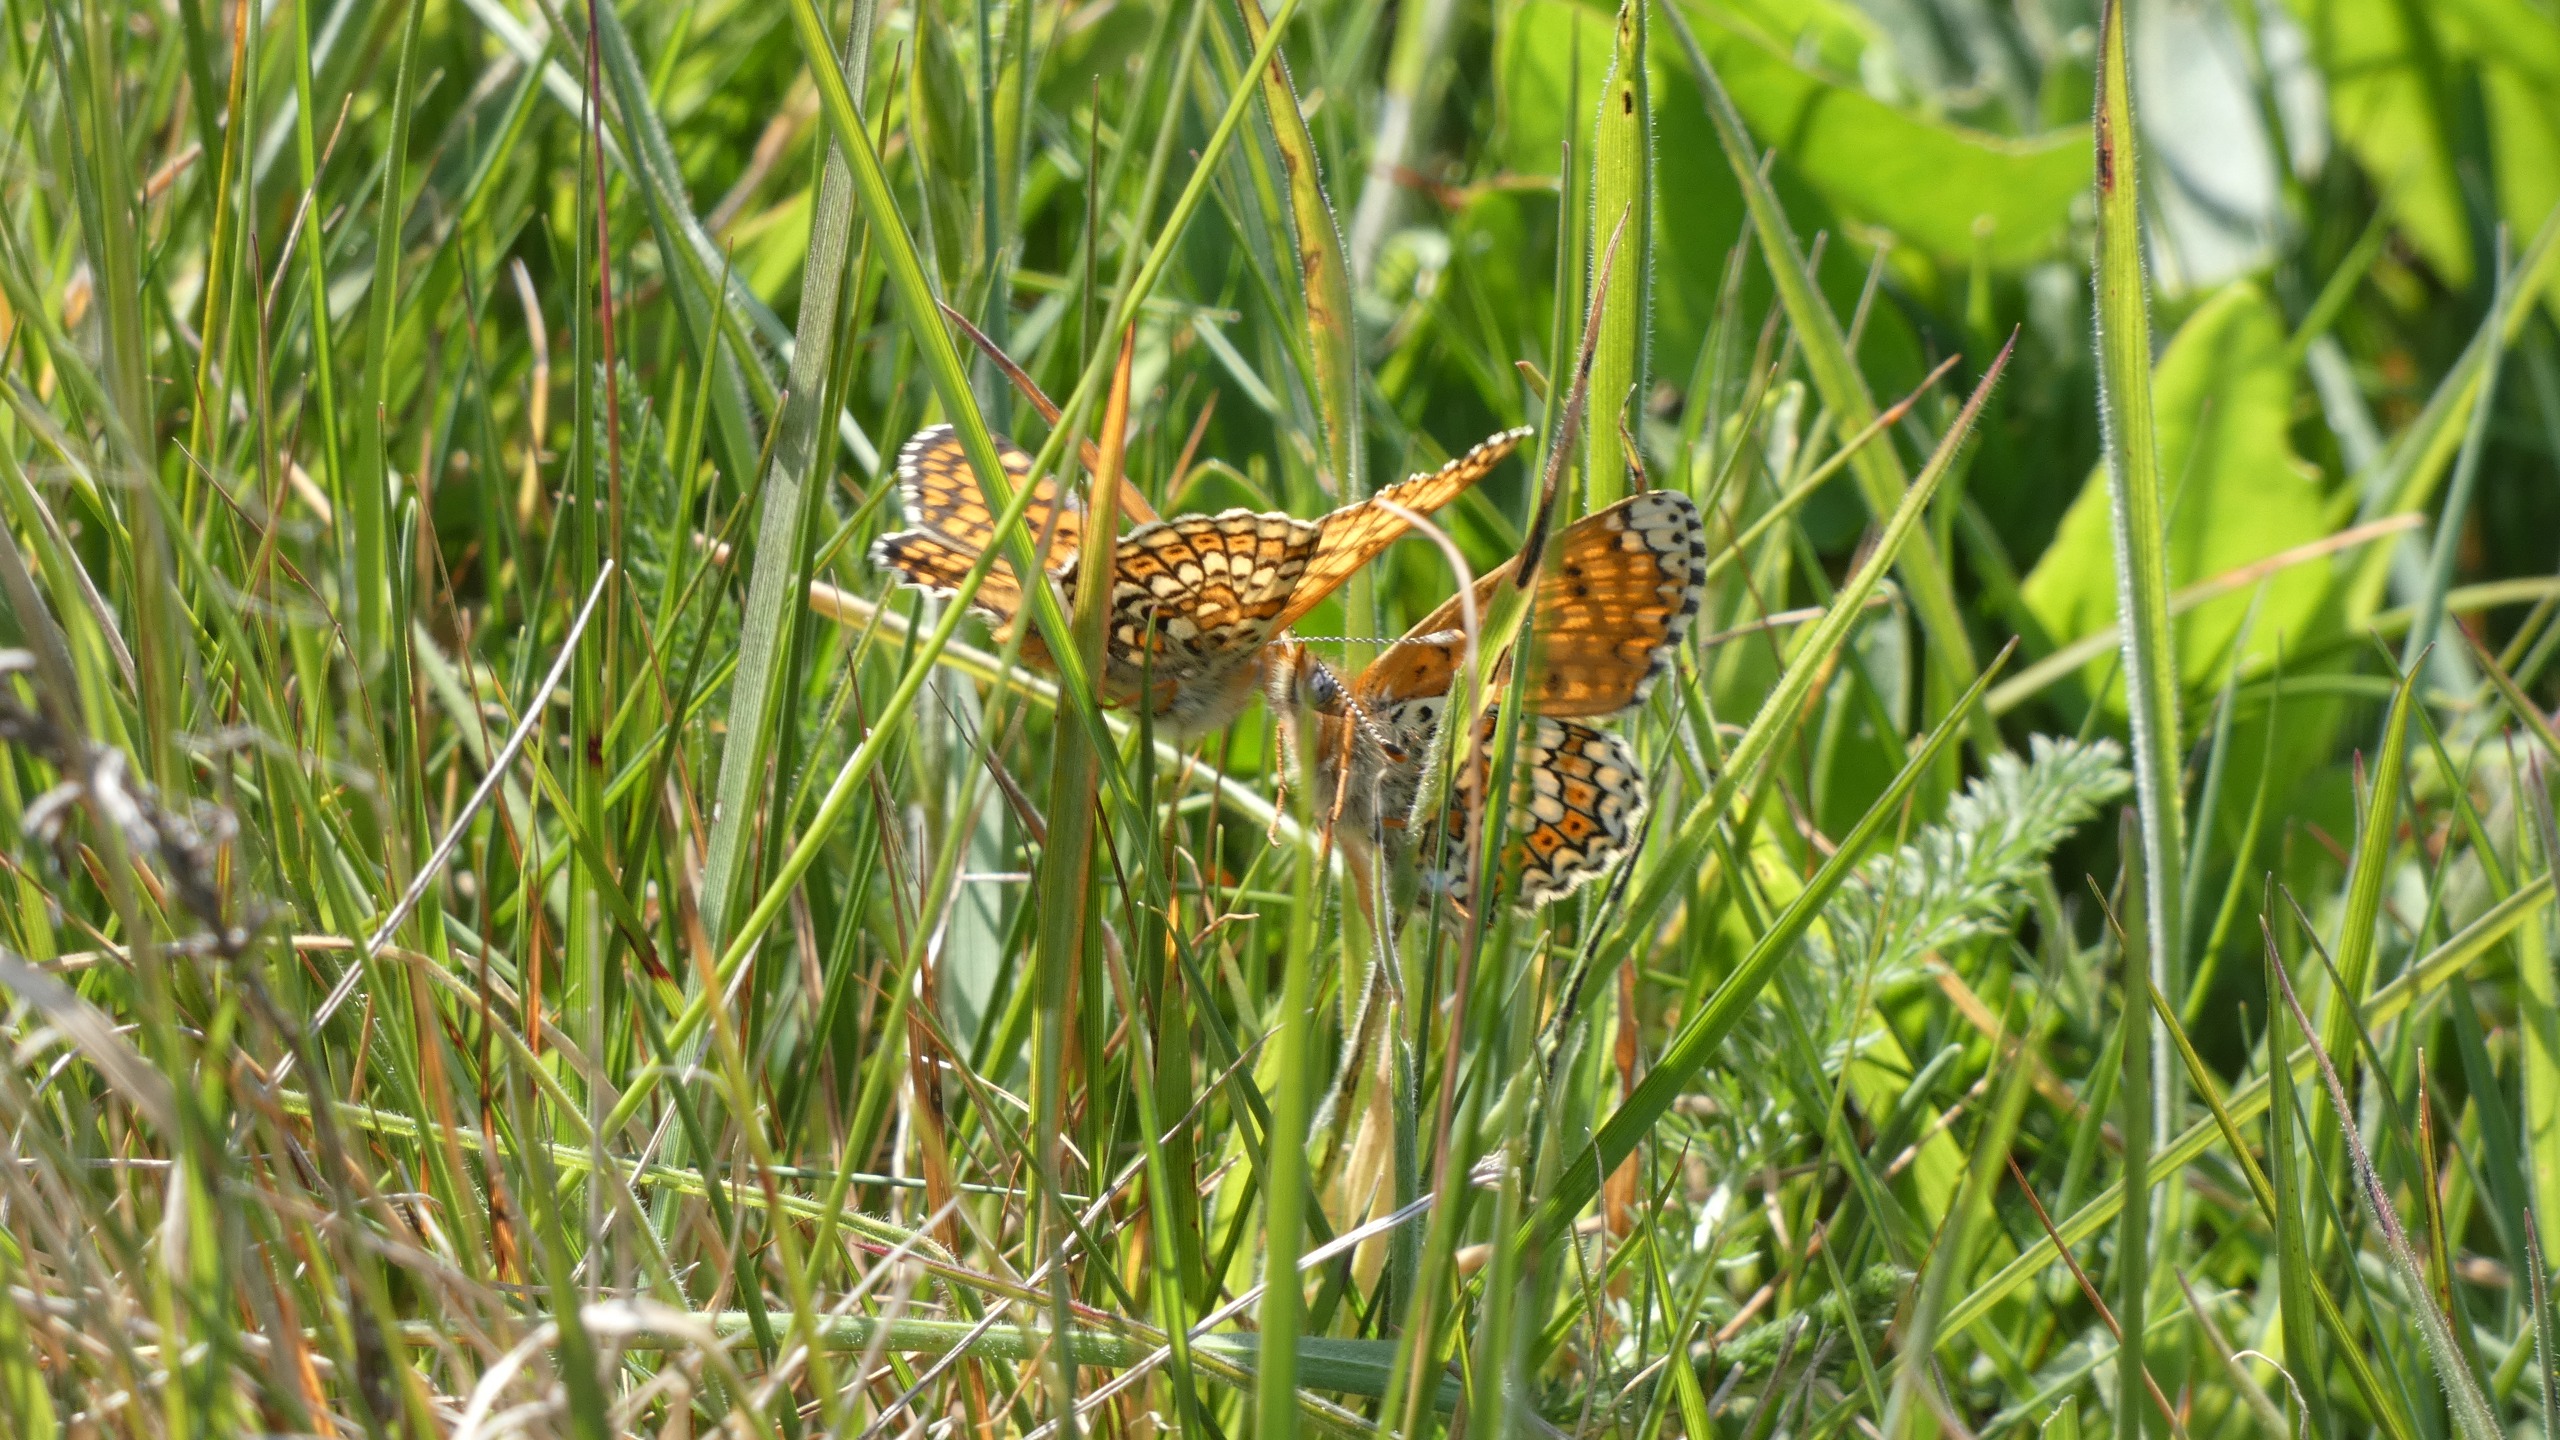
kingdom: Animalia
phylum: Arthropoda
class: Insecta
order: Lepidoptera
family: Nymphalidae
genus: Melitaea
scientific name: Melitaea cinxia
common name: Okkergul pletvinge
